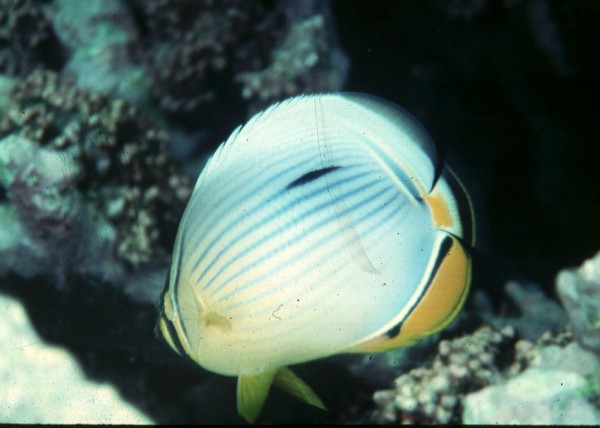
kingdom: Animalia
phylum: Chordata
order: Perciformes
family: Chaetodontidae
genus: Chaetodon
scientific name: Chaetodon trifasciatus
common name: Redfin butterflyfish
